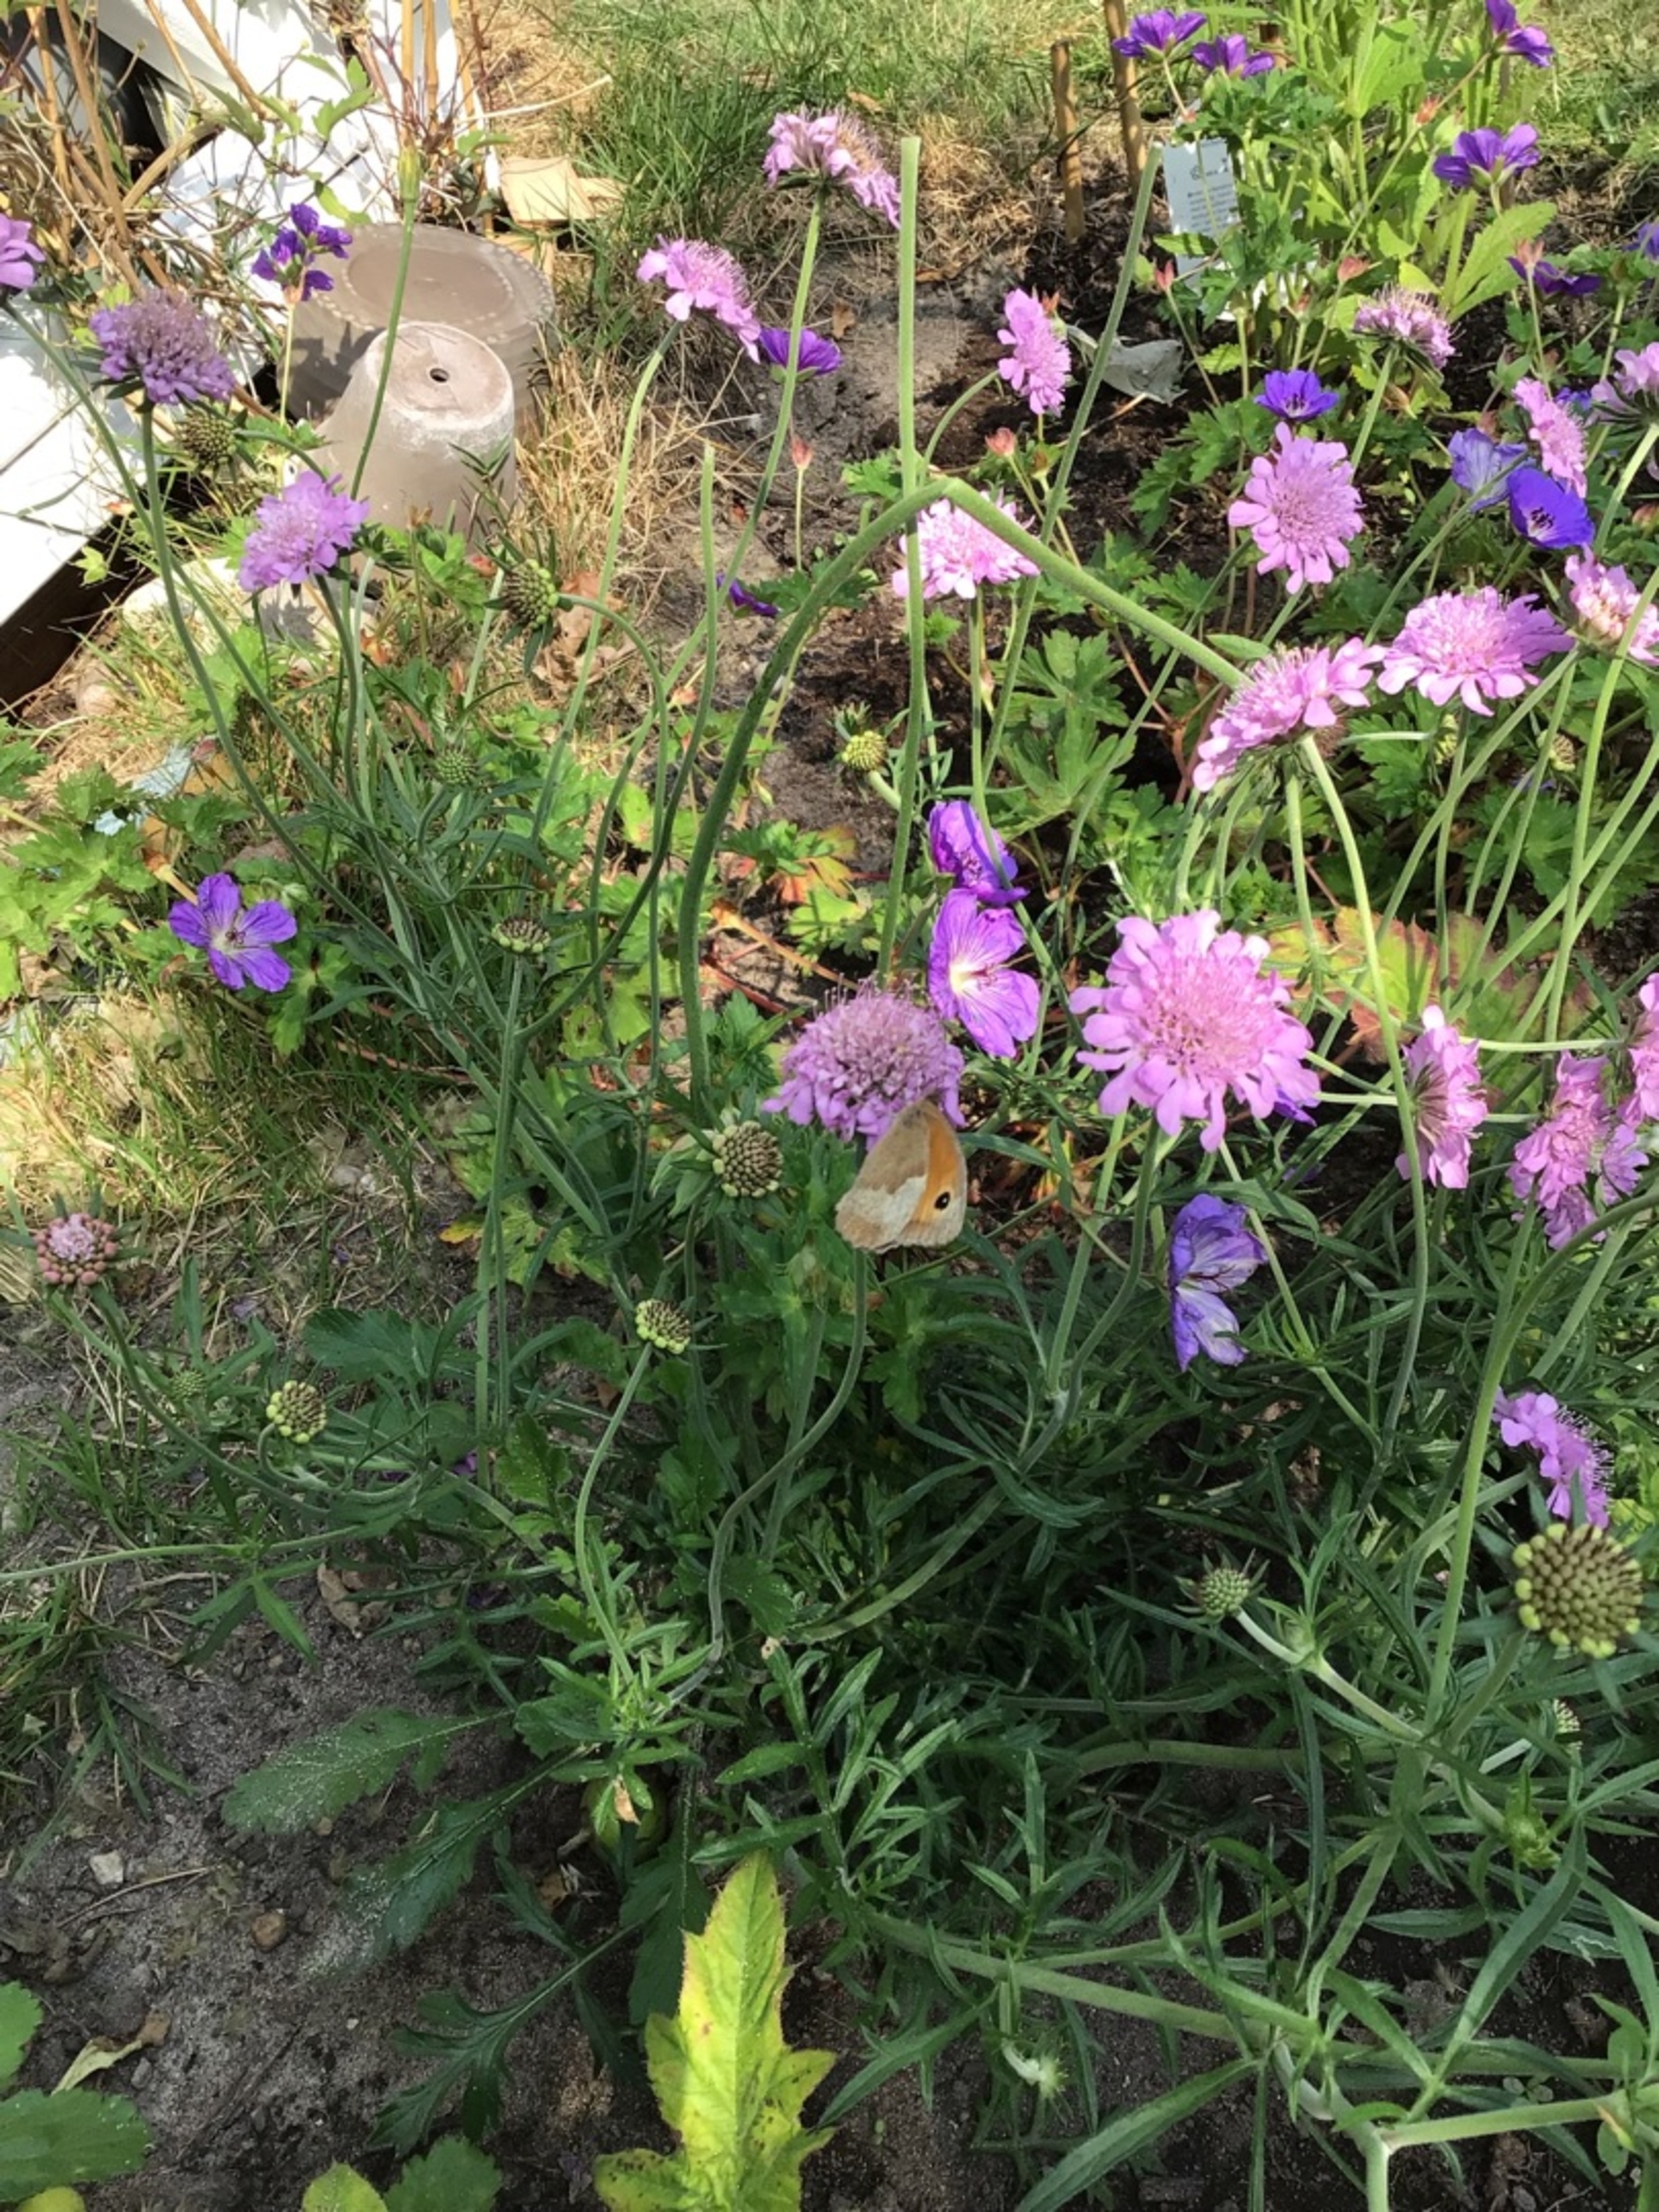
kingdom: Animalia
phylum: Arthropoda
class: Insecta
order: Lepidoptera
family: Nymphalidae
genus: Maniola
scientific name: Maniola jurtina
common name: Græsrandøje
